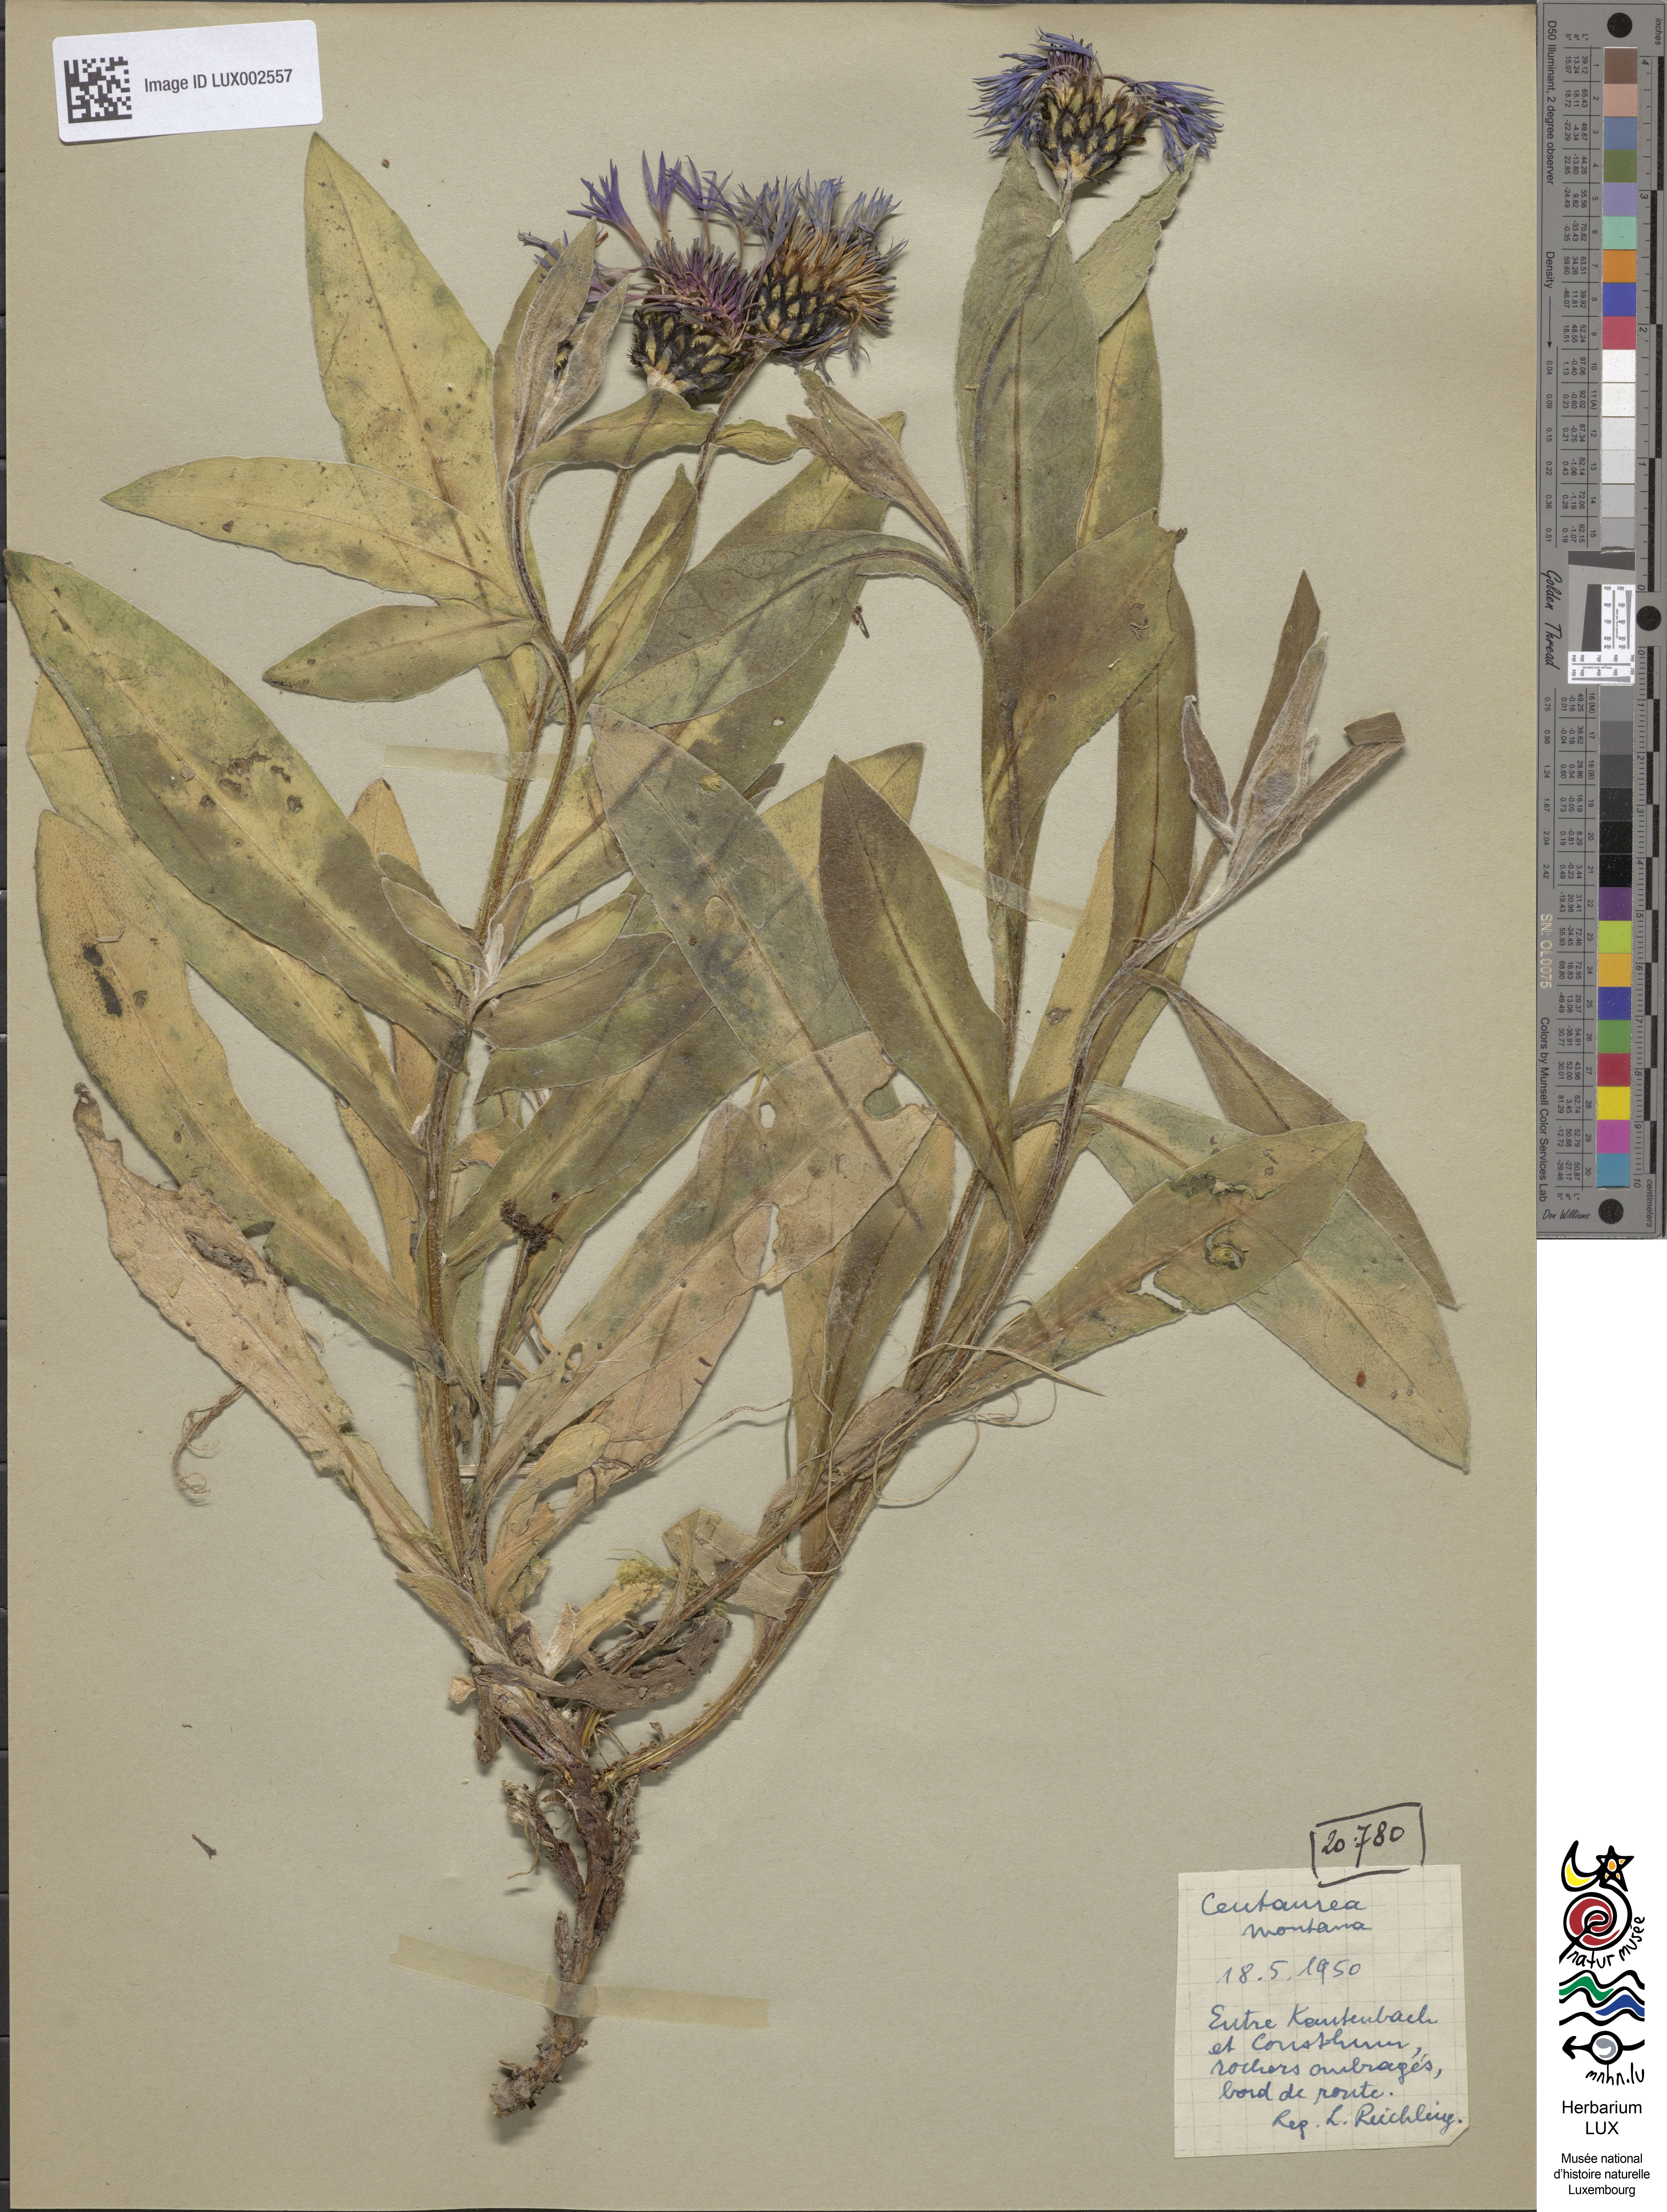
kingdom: Plantae
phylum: Tracheophyta
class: Magnoliopsida
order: Asterales
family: Asteraceae
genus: Centaurea
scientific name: Centaurea montana
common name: Perennial cornflower
